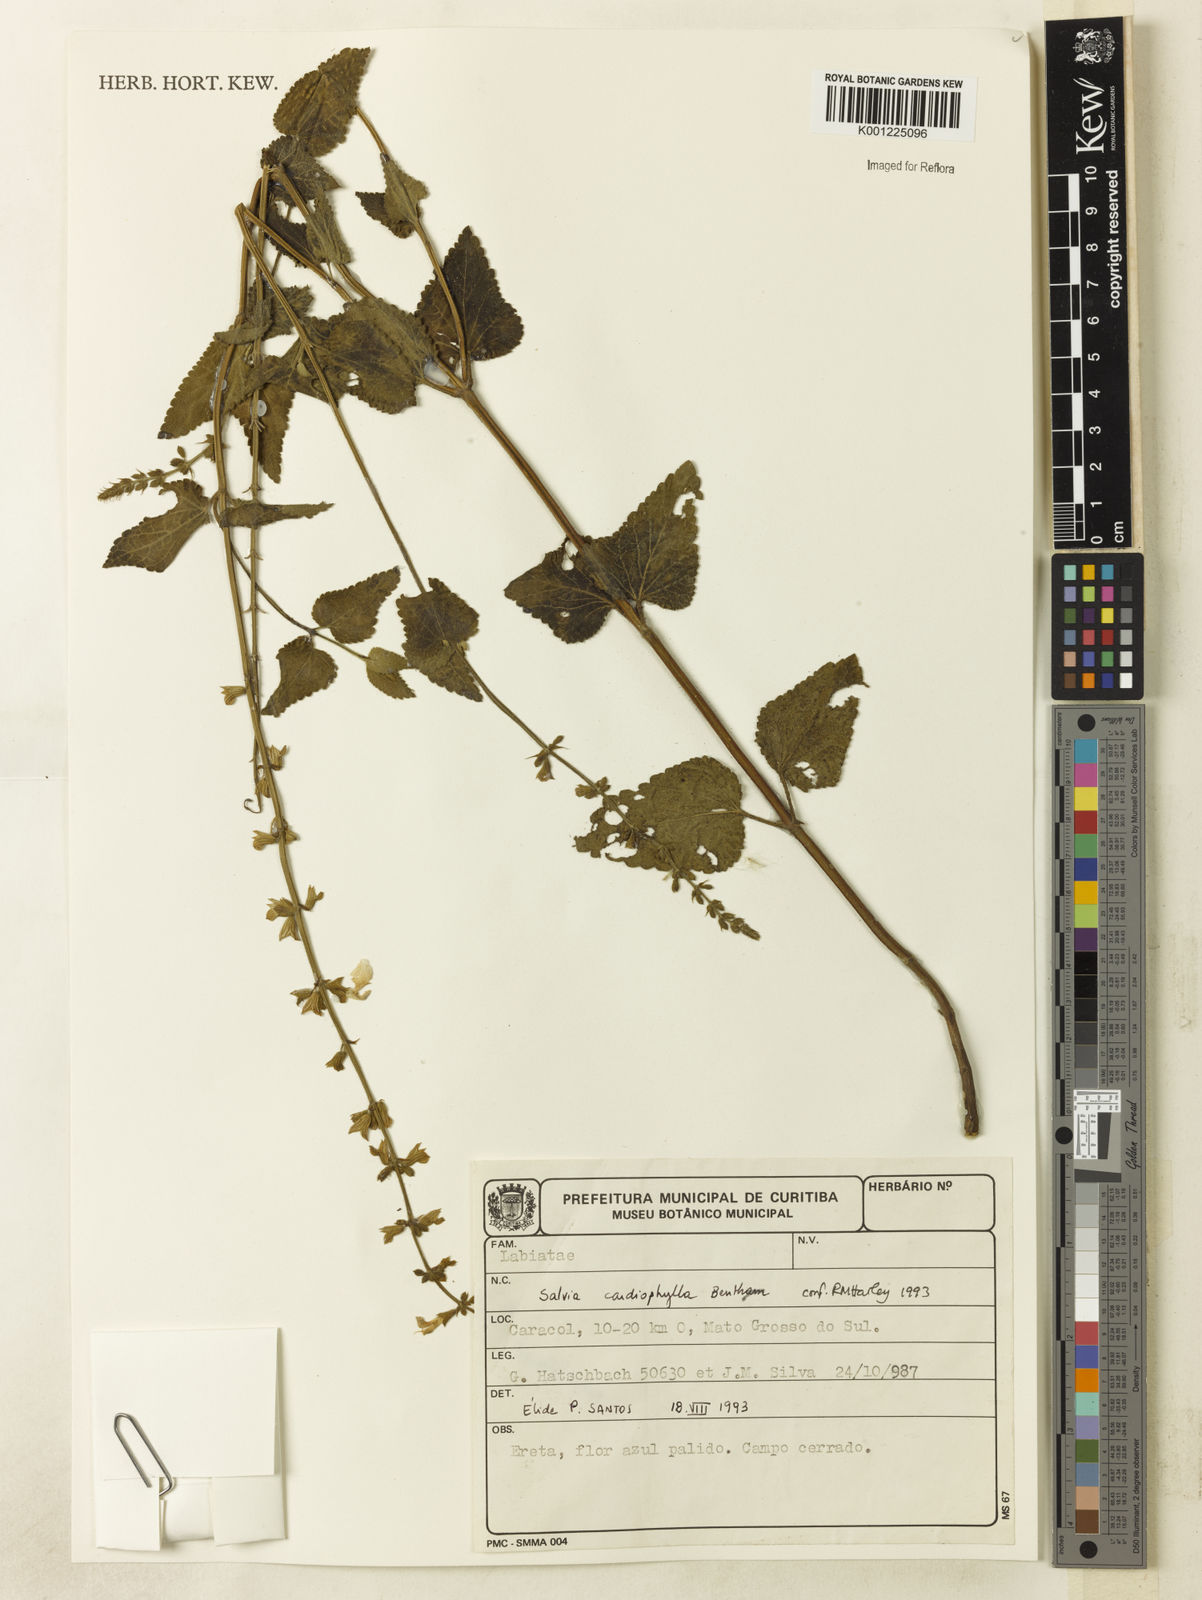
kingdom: Plantae
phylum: Tracheophyta
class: Magnoliopsida
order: Lamiales
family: Lamiaceae
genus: Salvia
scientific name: Salvia cardiophylla
